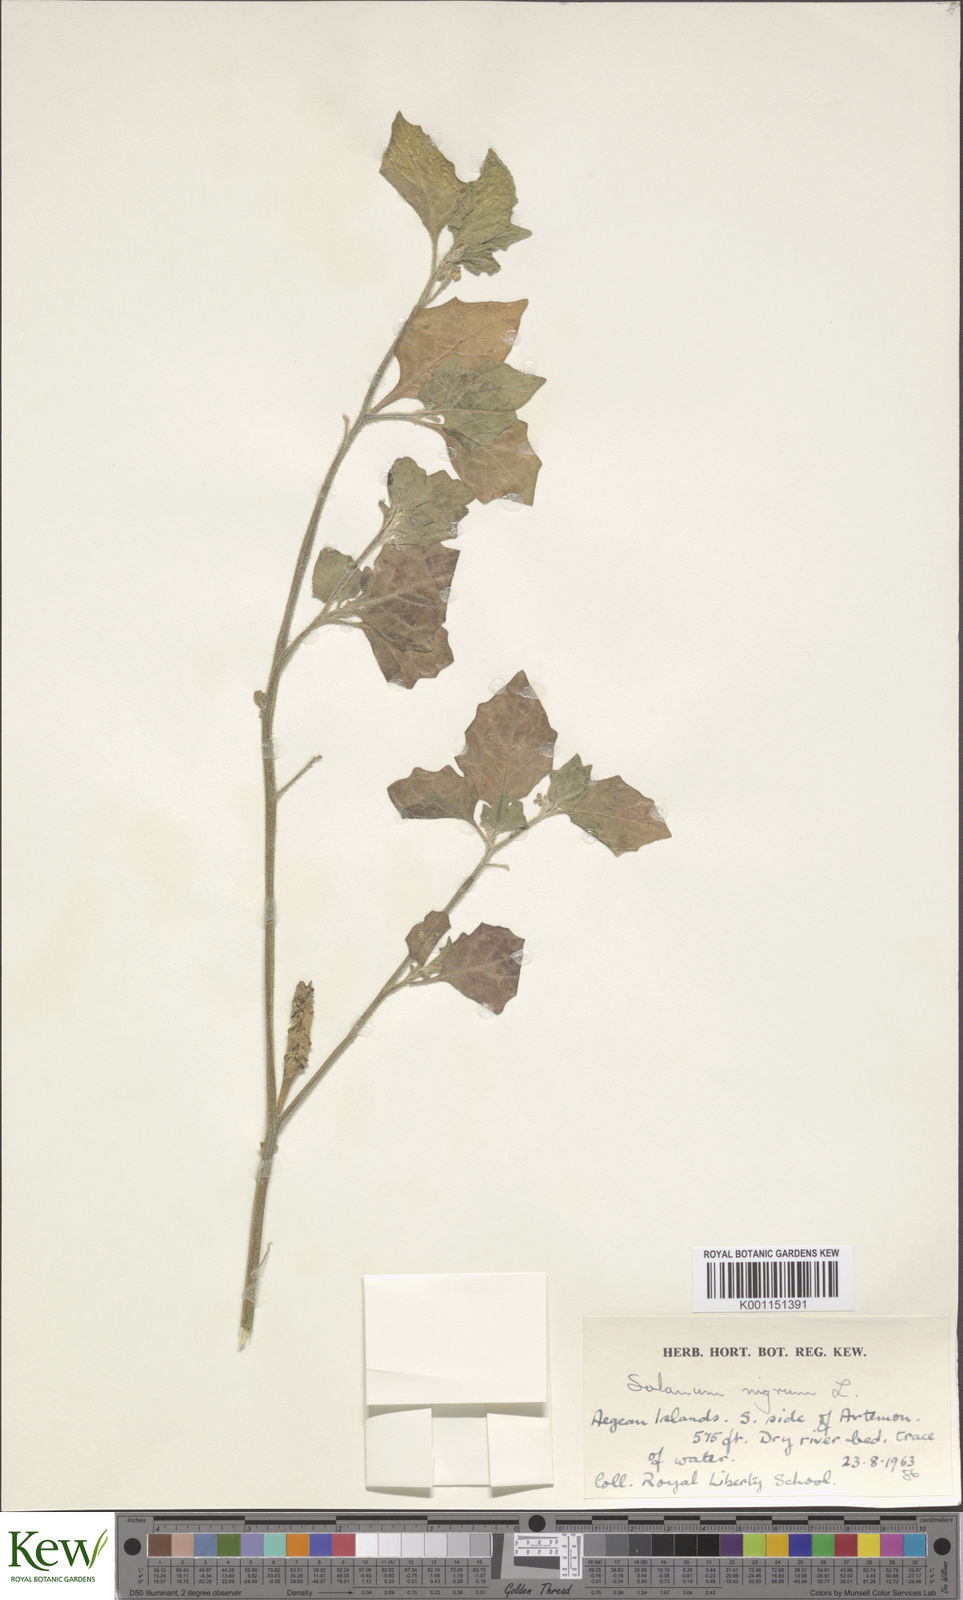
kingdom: Plantae
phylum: Tracheophyta
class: Magnoliopsida
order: Solanales
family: Solanaceae
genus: Solanum
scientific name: Solanum nigrum
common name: Black nightshade
